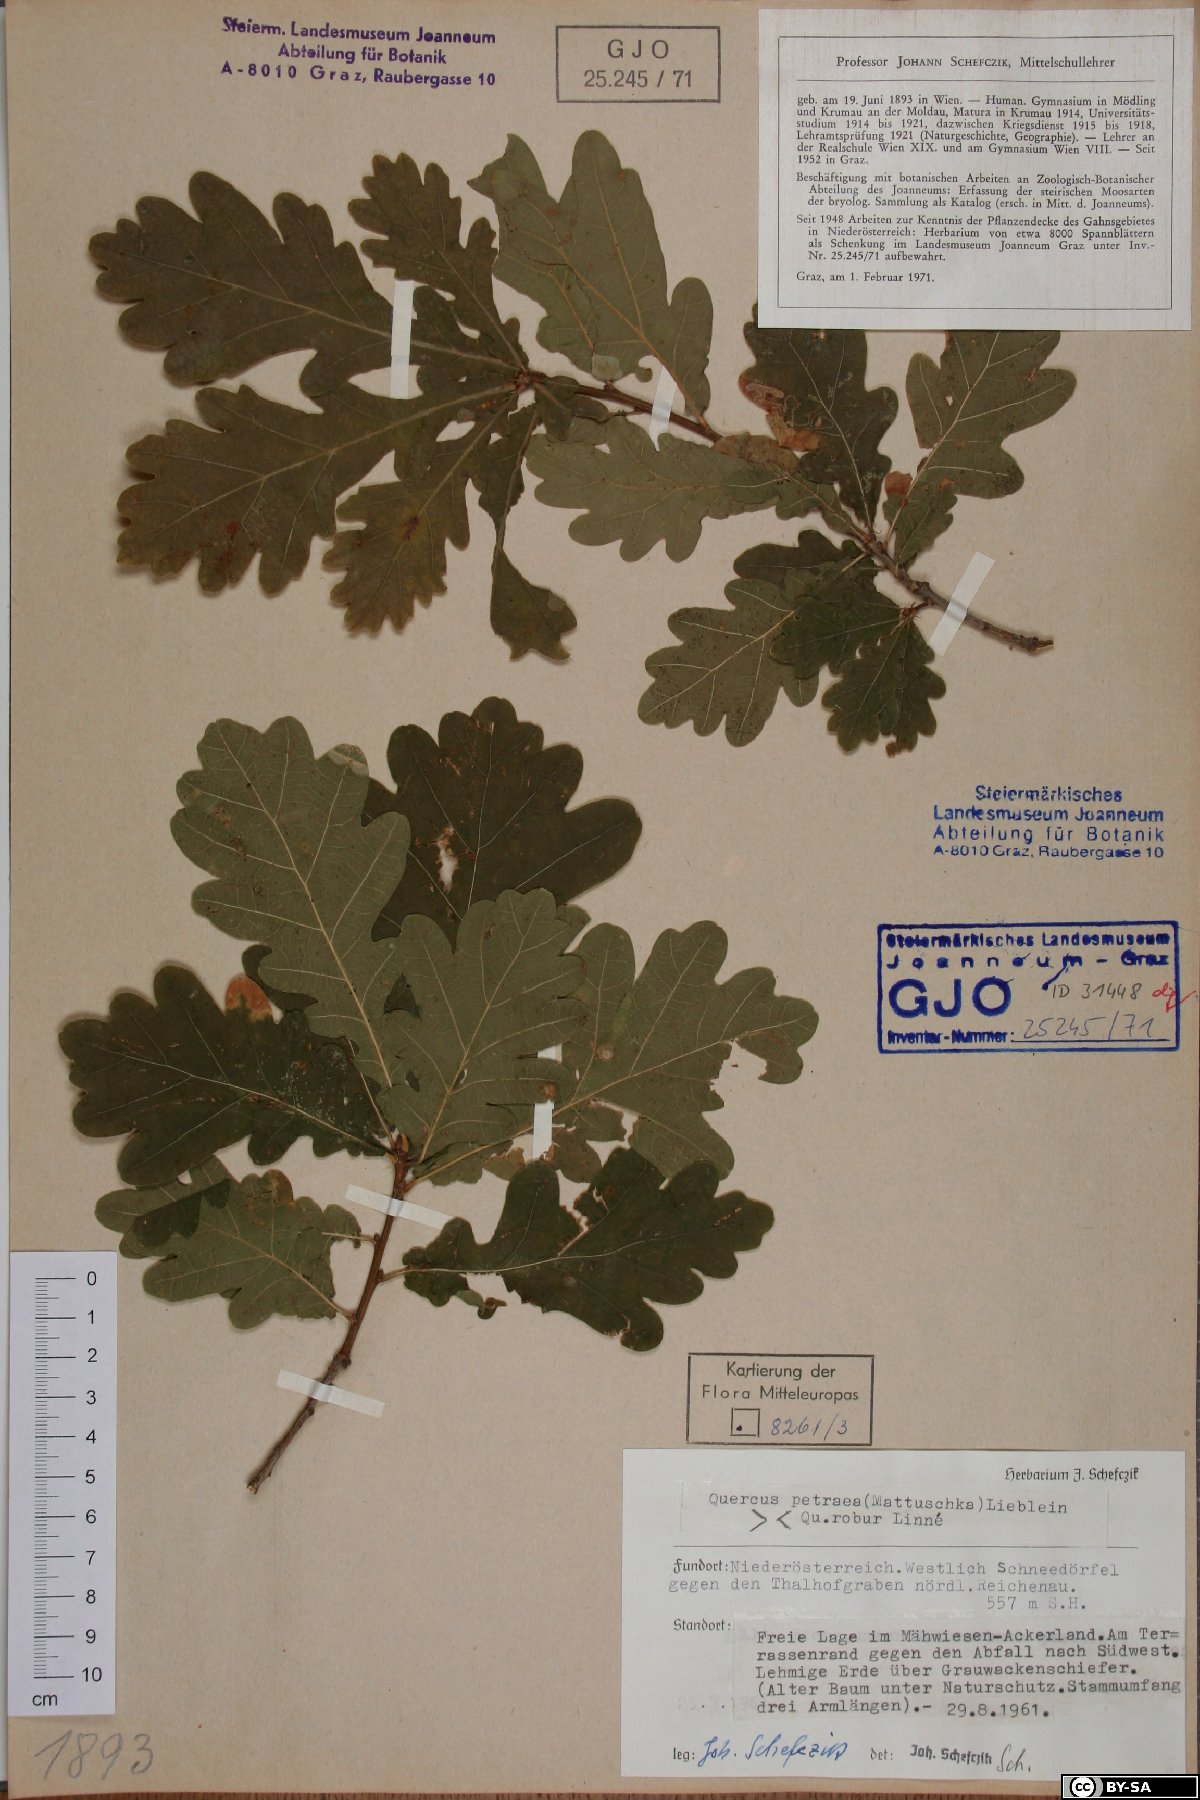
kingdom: Plantae
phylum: Tracheophyta
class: Magnoliopsida
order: Fagales
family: Fagaceae
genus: Quercus
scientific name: Quercus petraea
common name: Sessile oak
